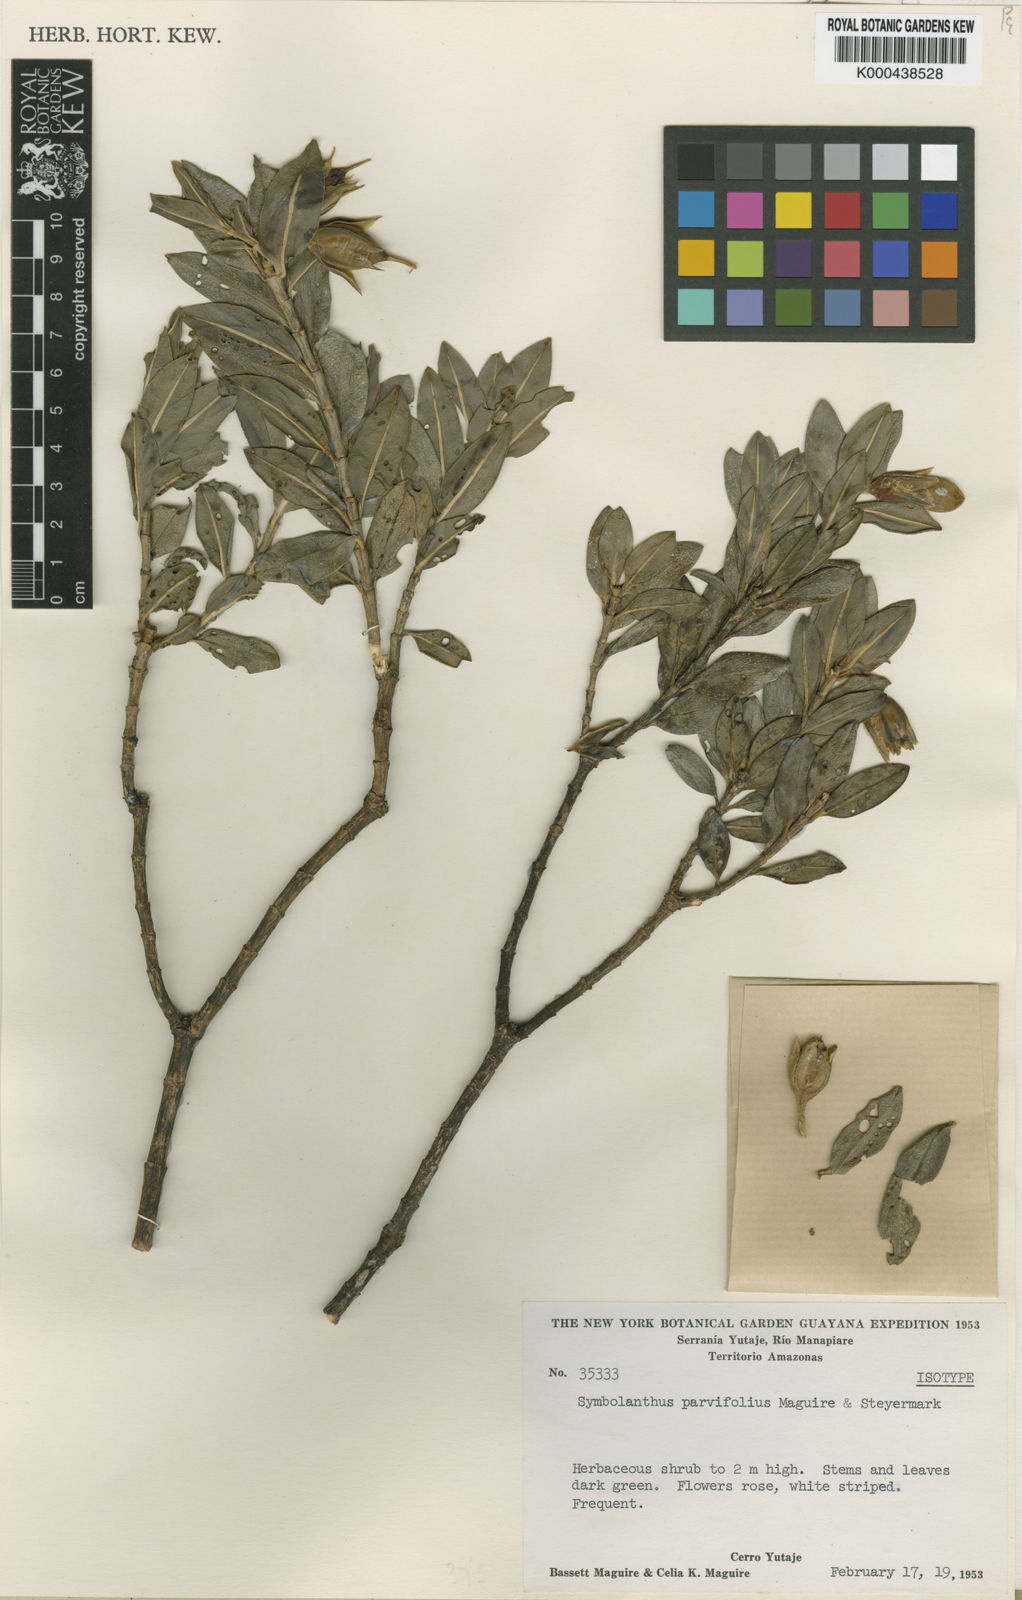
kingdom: Plantae
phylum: Tracheophyta
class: Magnoliopsida
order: Gentianales
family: Gentianaceae
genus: Symbolanthus
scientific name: Symbolanthus yaviensis
